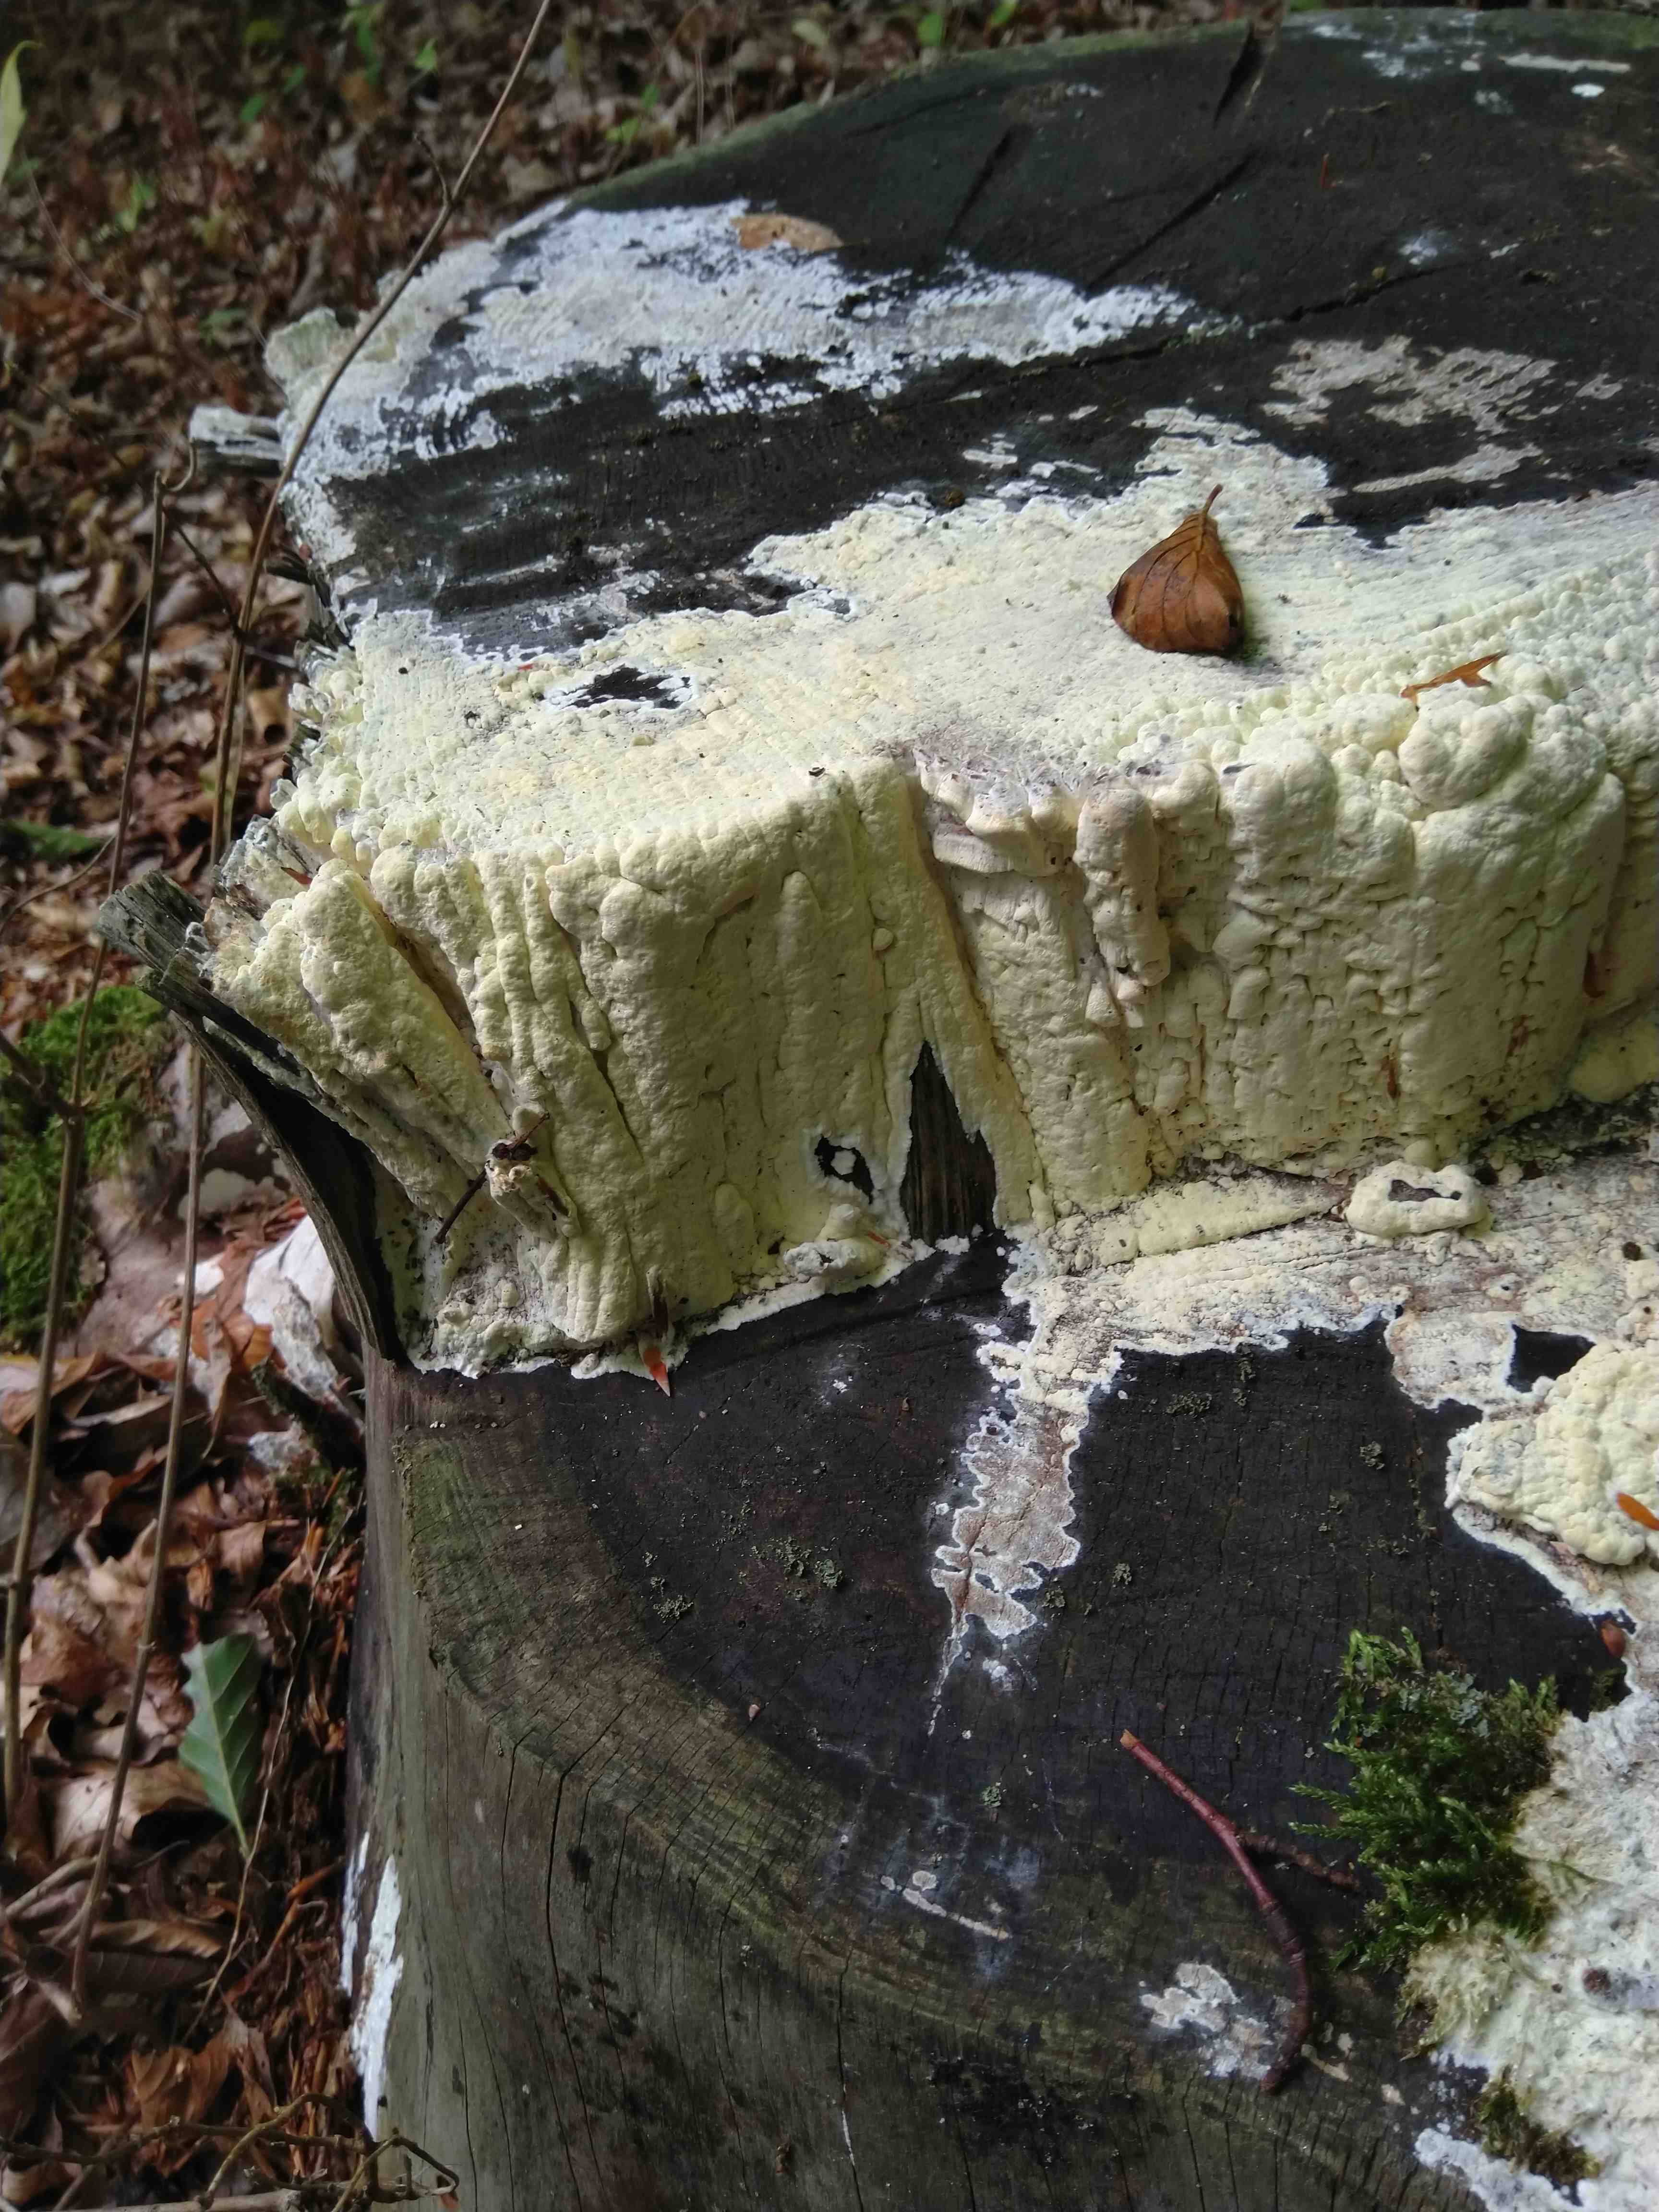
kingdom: Fungi
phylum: Basidiomycota
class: Agaricomycetes
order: Polyporales
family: Fomitopsidaceae
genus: Daedalea
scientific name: Daedalea xantha
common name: gul sejporesvamp
